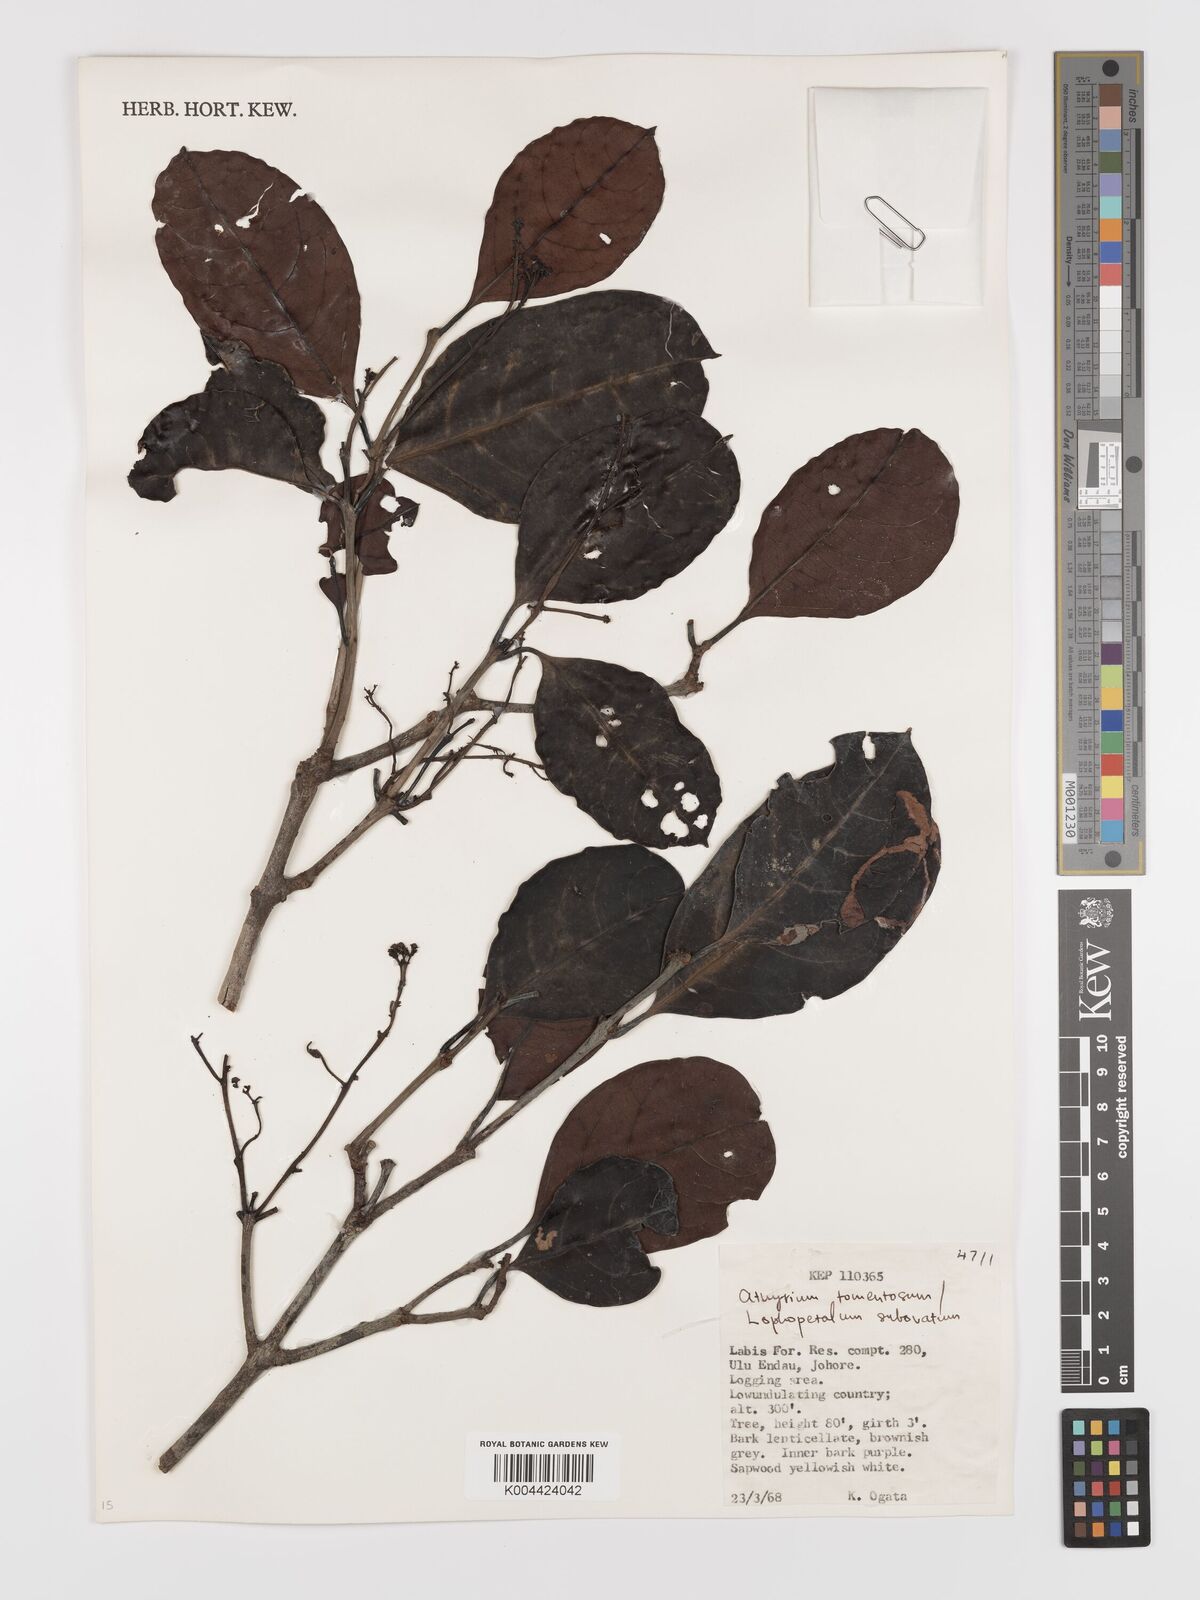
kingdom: Plantae
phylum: Tracheophyta
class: Magnoliopsida
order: Celastrales
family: Celastraceae
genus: Lophopetalum
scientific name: Lophopetalum subobovatum
